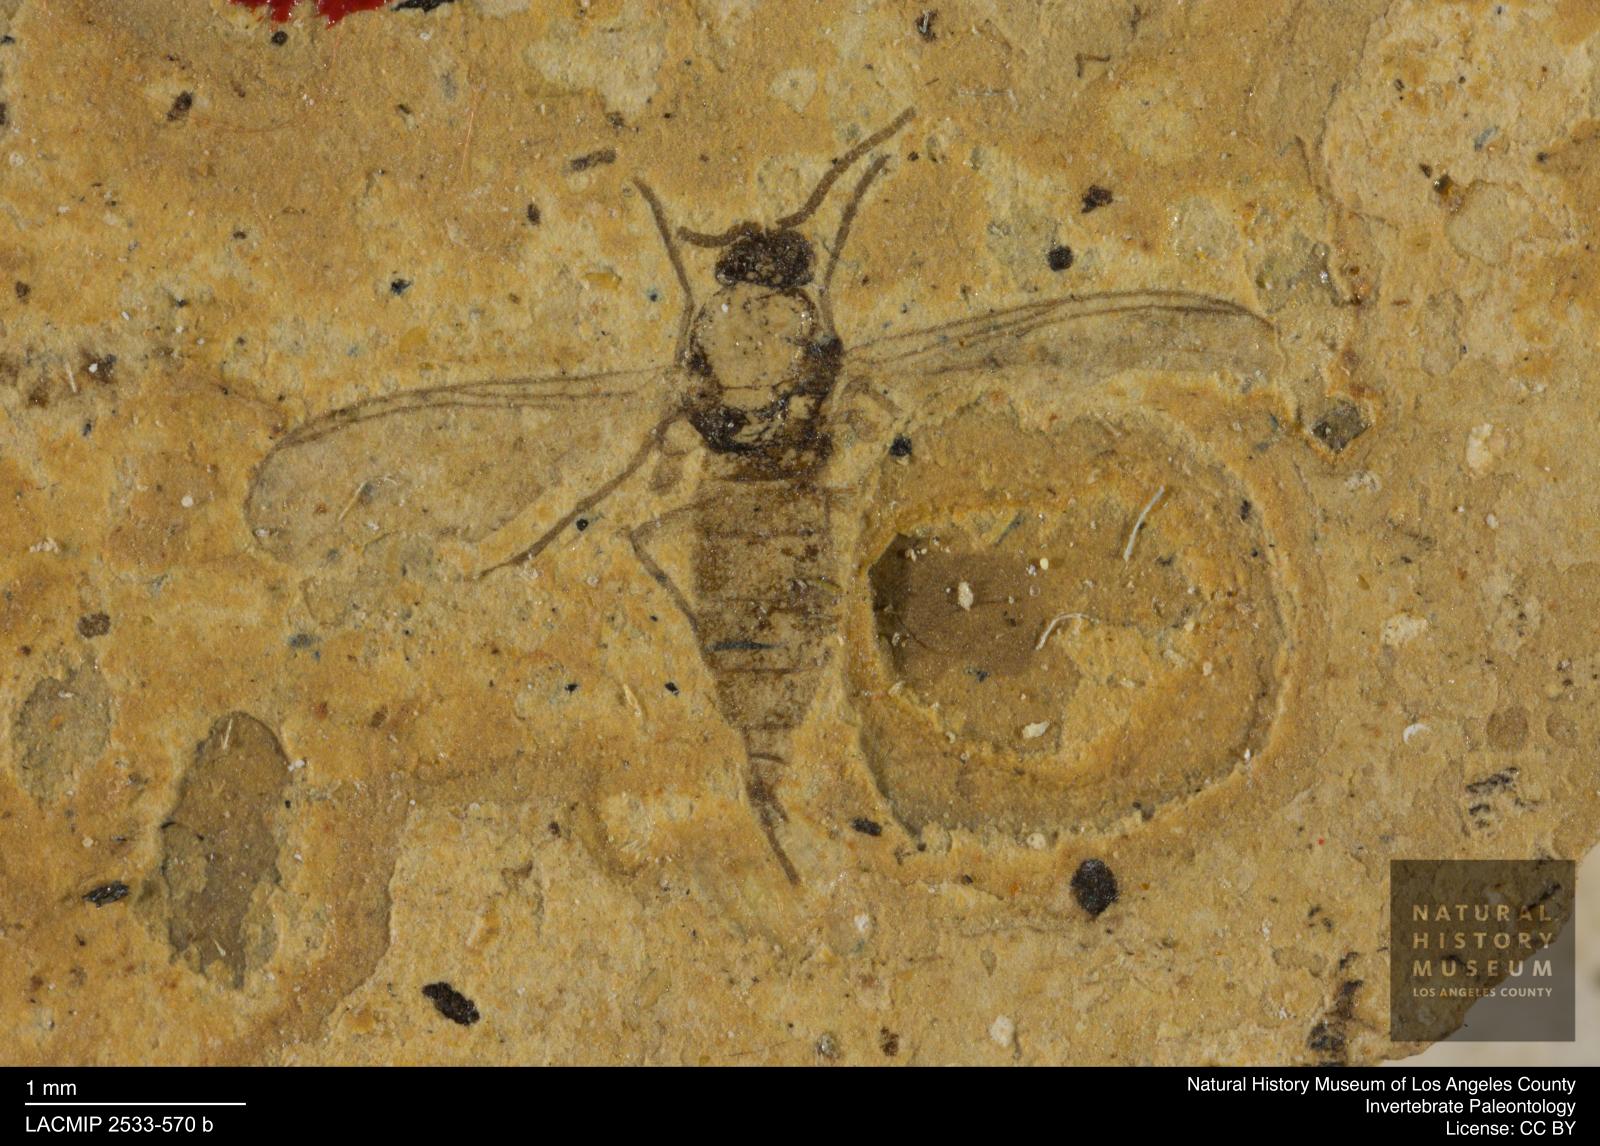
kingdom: Animalia
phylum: Arthropoda
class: Insecta
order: Diptera
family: Sciaridae
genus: Sciara
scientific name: Sciara Lycoria bicolora
